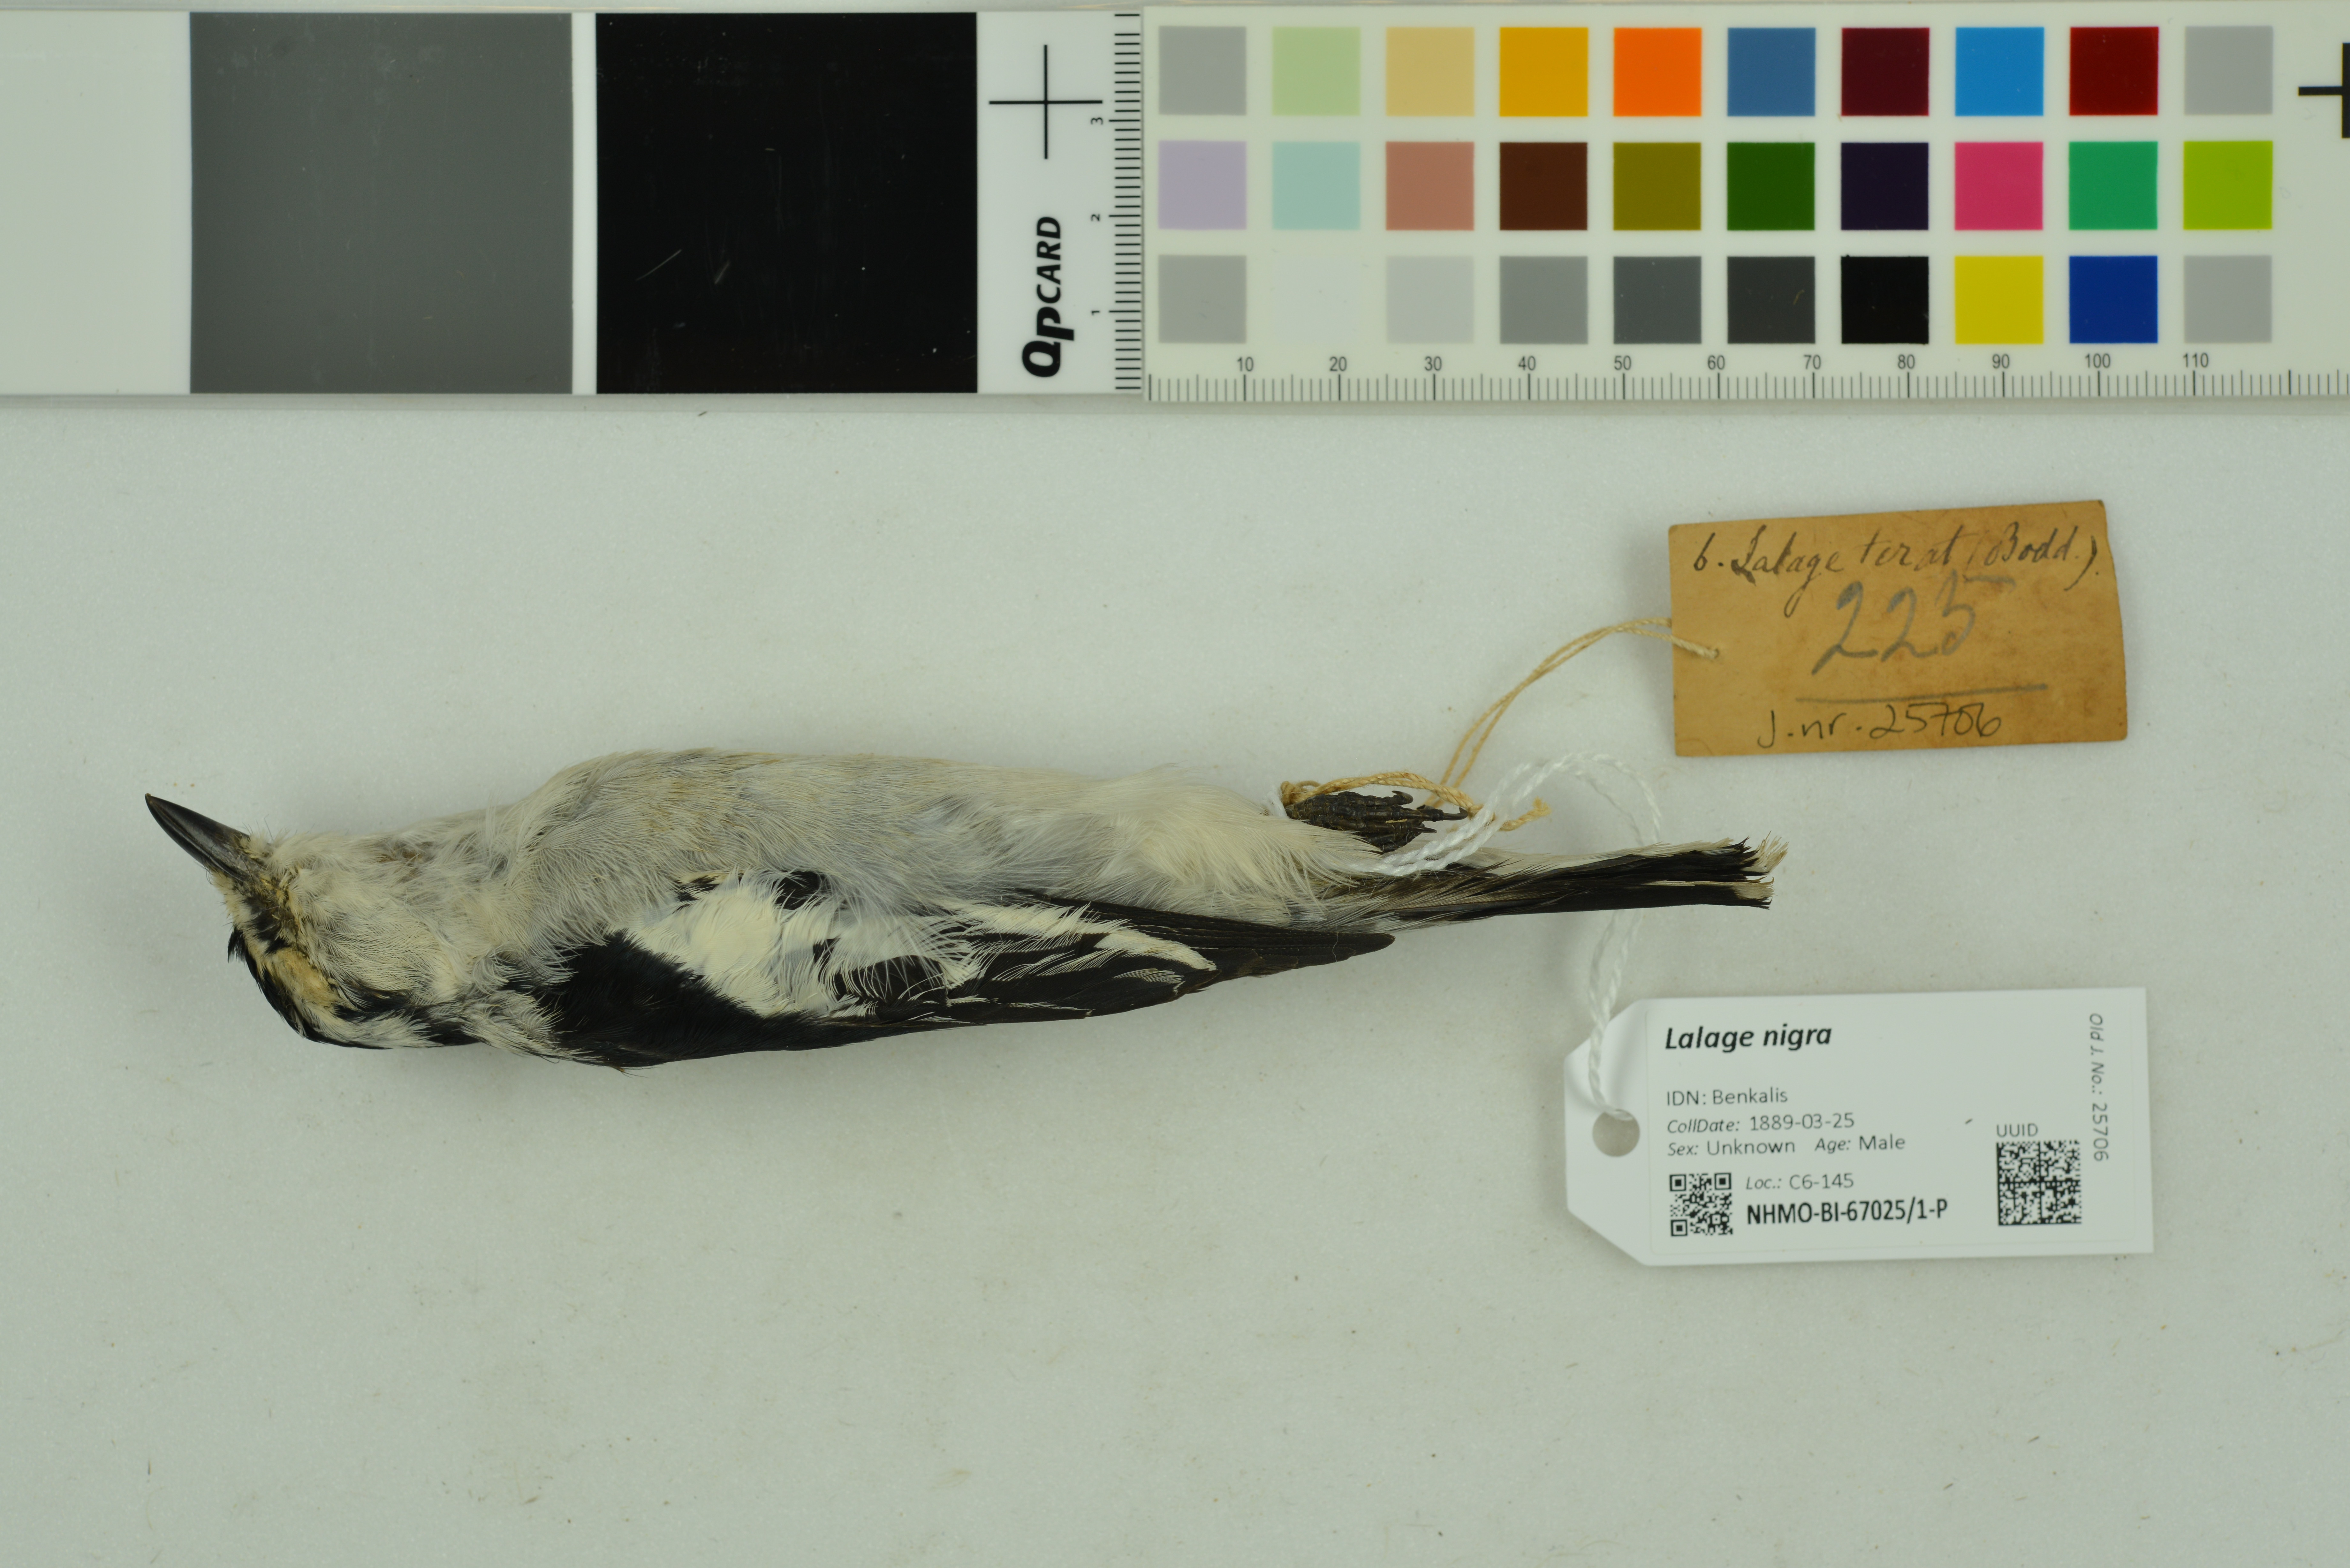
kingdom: Animalia
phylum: Chordata
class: Aves
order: Passeriformes
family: Campephagidae
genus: Lalage
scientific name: Lalage nigra
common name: Pied triller
